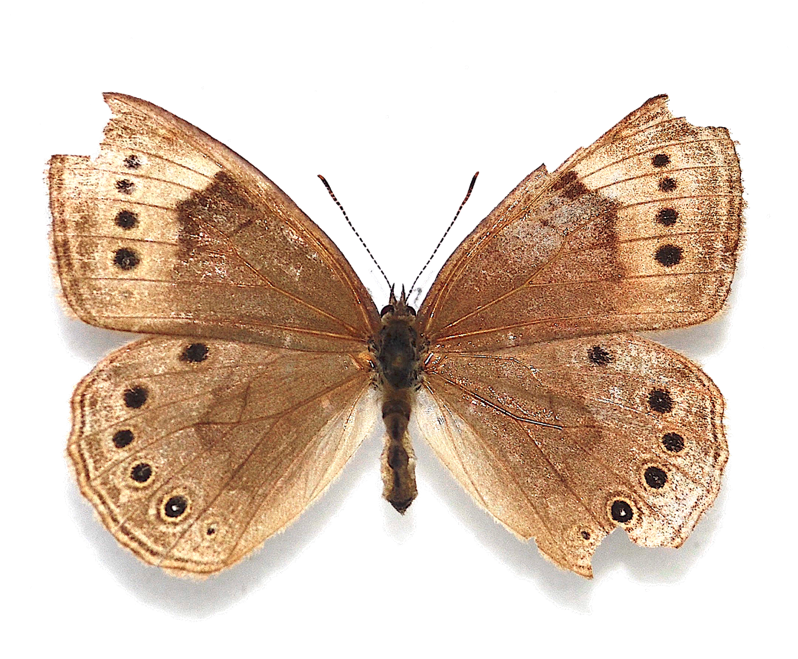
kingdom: Animalia
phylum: Arthropoda
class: Insecta
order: Lepidoptera
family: Nymphalidae
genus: Lethe
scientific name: Lethe eurydice
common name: Eyed Brown
